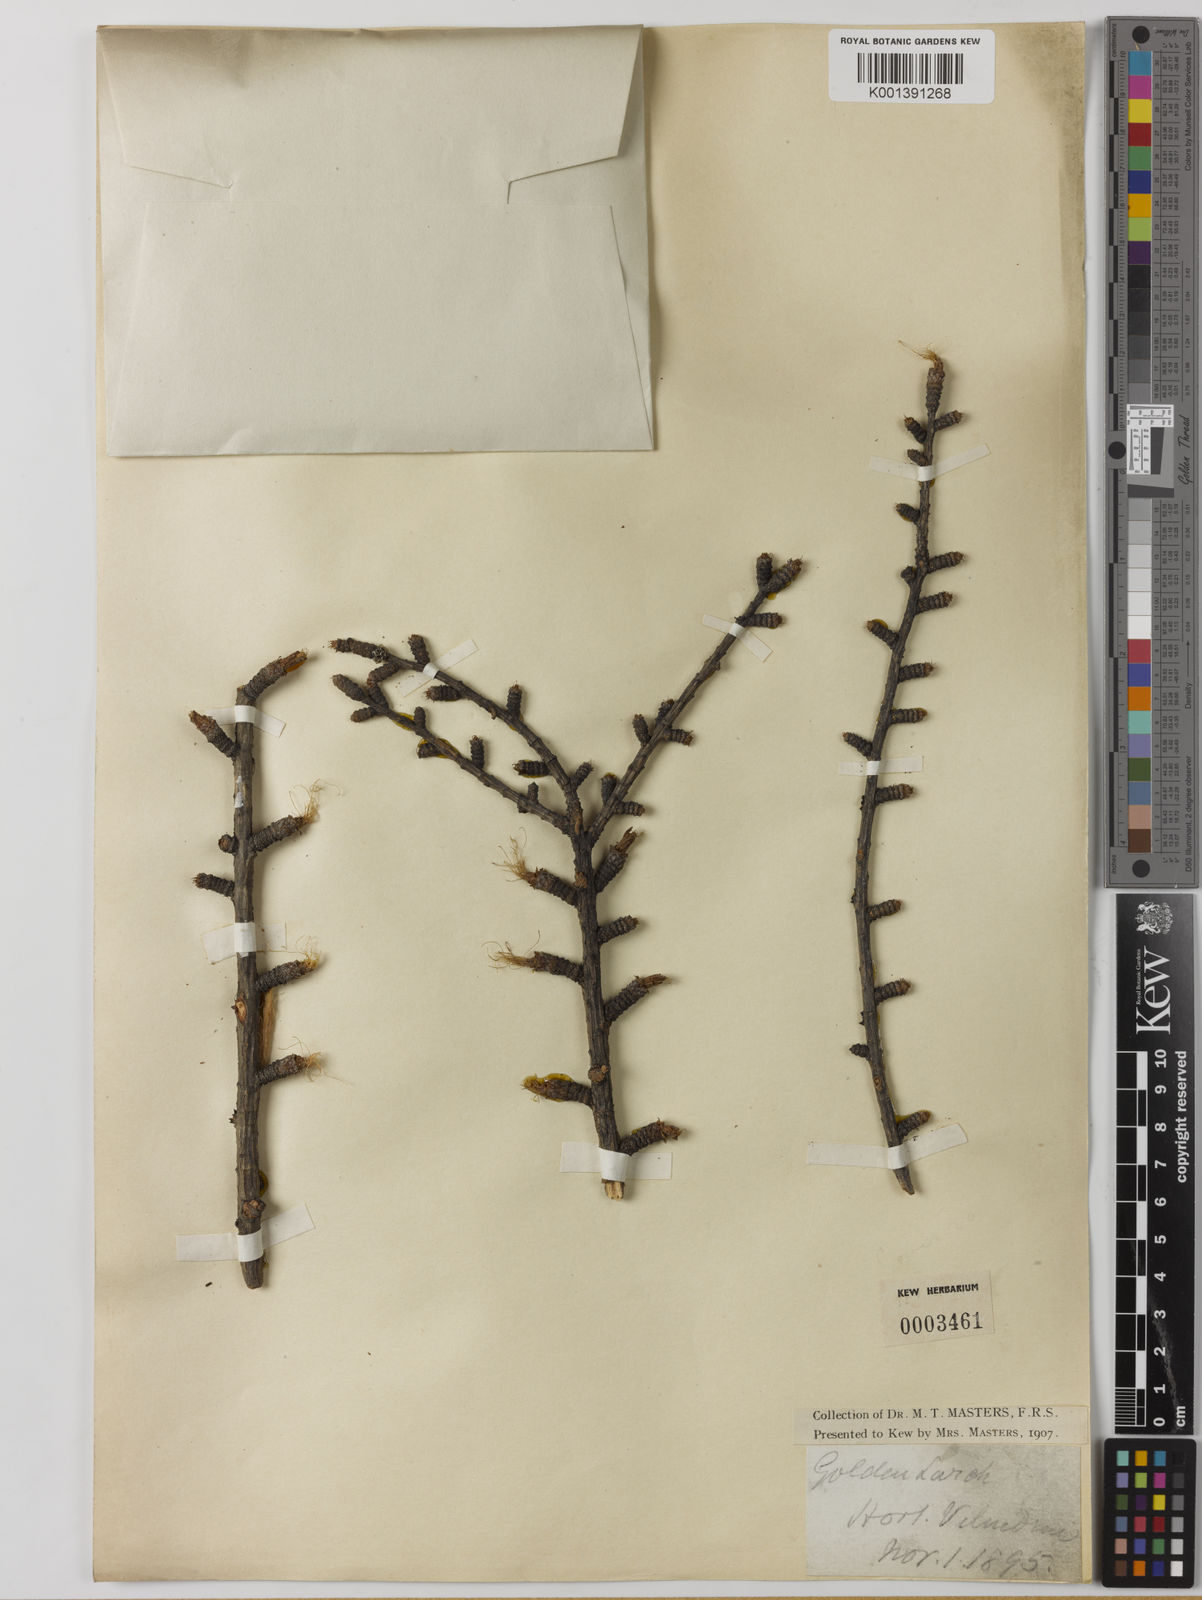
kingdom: Plantae
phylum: Tracheophyta
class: Pinopsida
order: Pinales
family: Pinaceae
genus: Pseudolarix
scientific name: Pseudolarix amabilis
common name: Chinese golden larch
